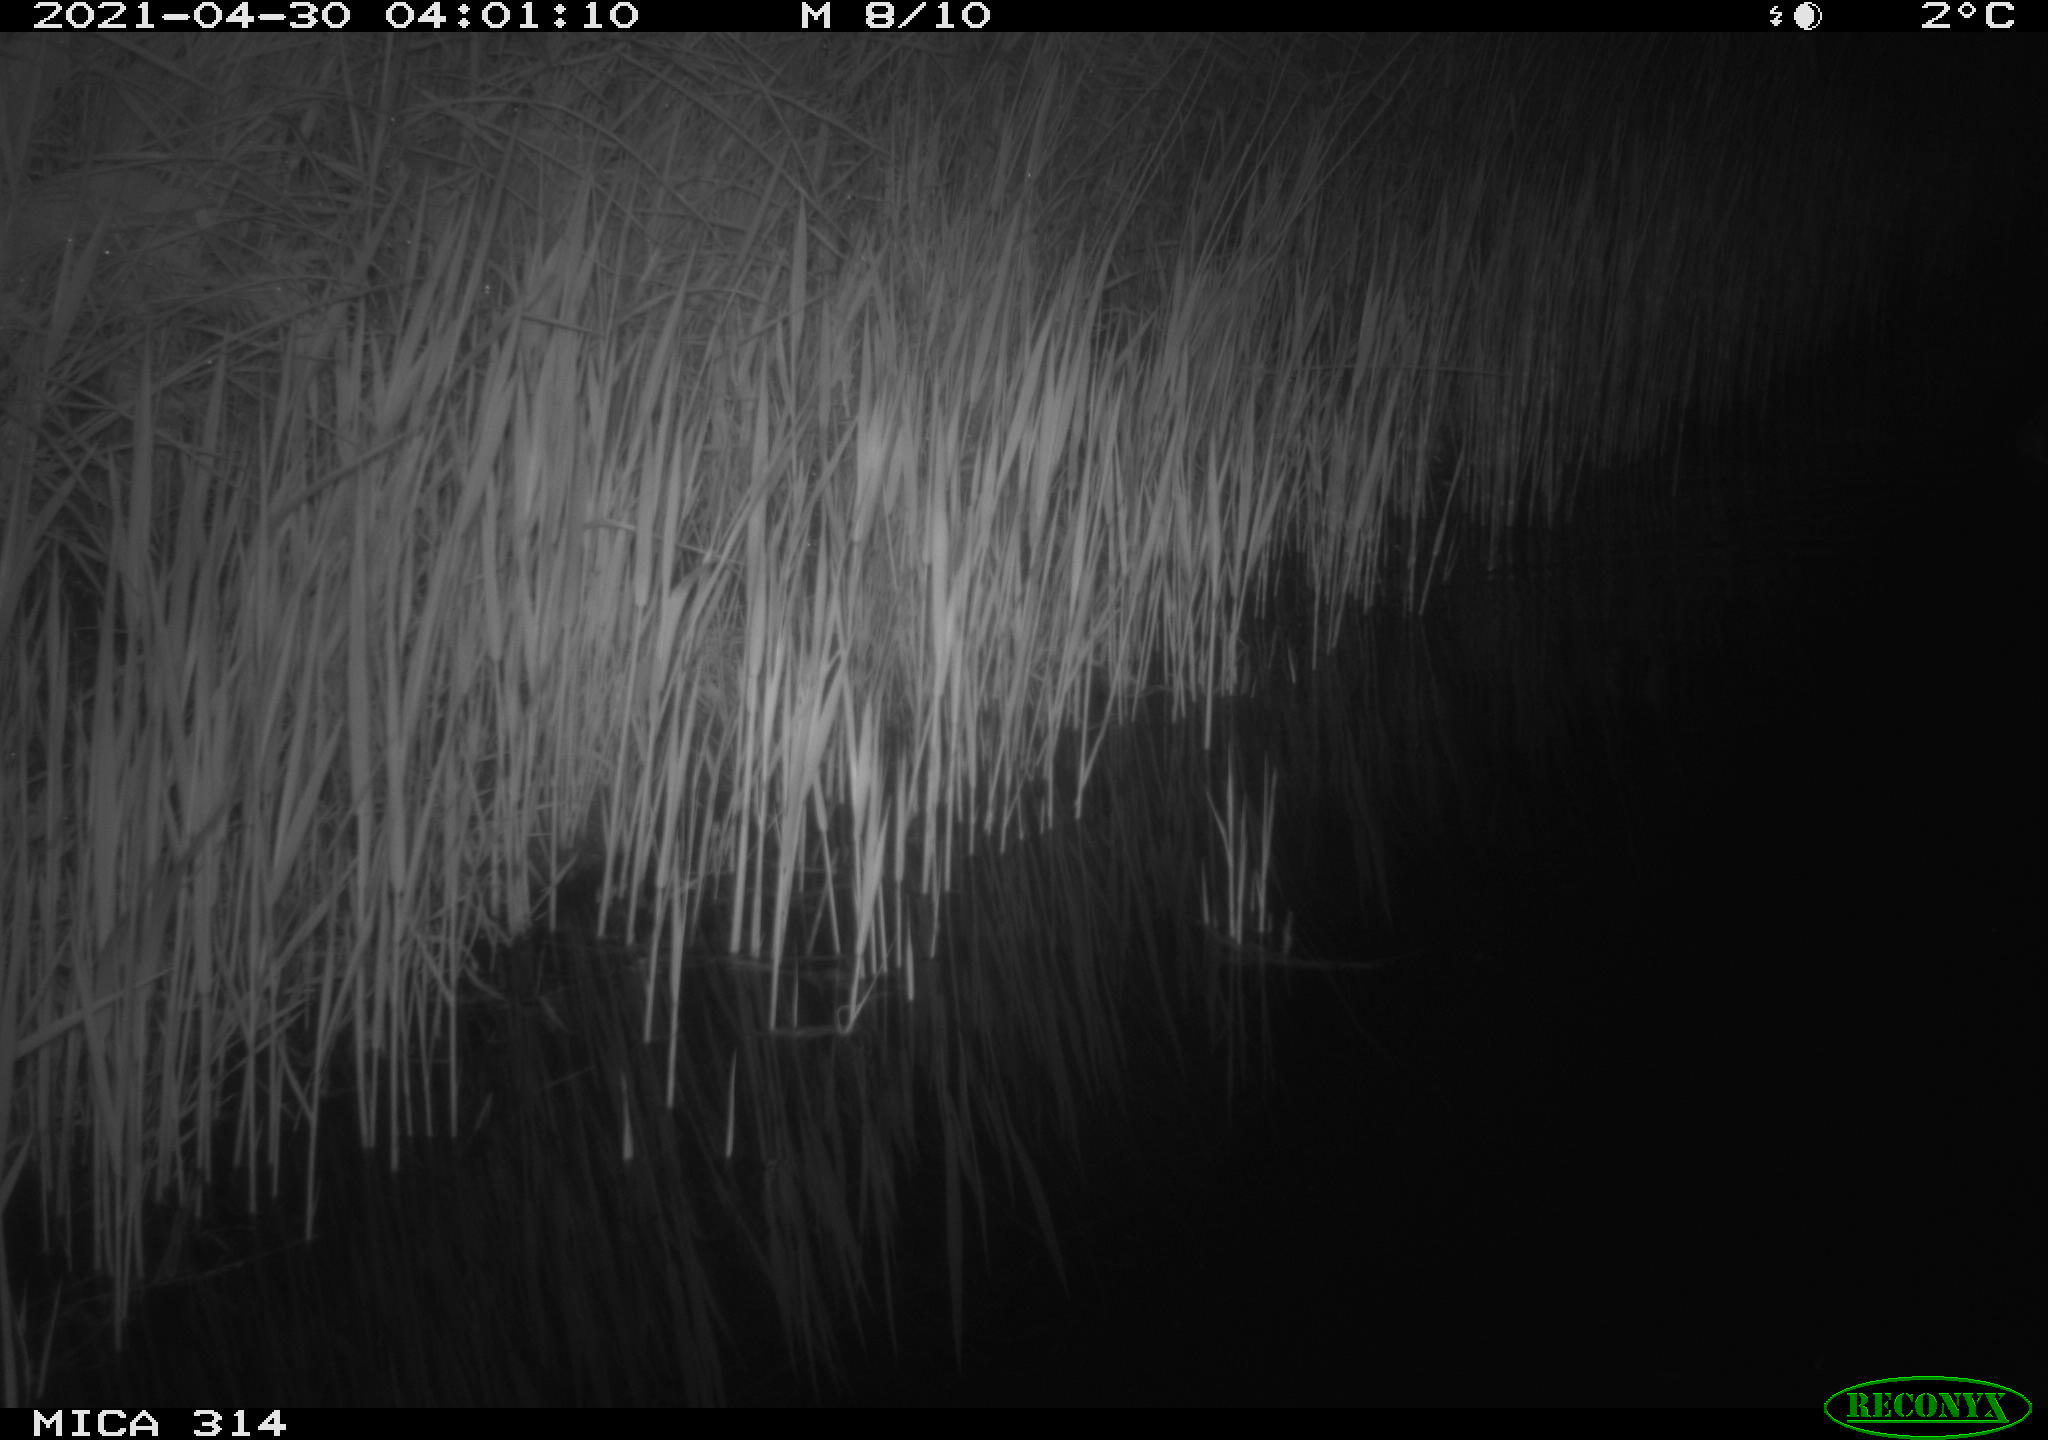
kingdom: Animalia
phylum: Chordata
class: Aves
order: Anseriformes
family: Anatidae
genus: Anas
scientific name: Anas platyrhynchos
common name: Mallard
